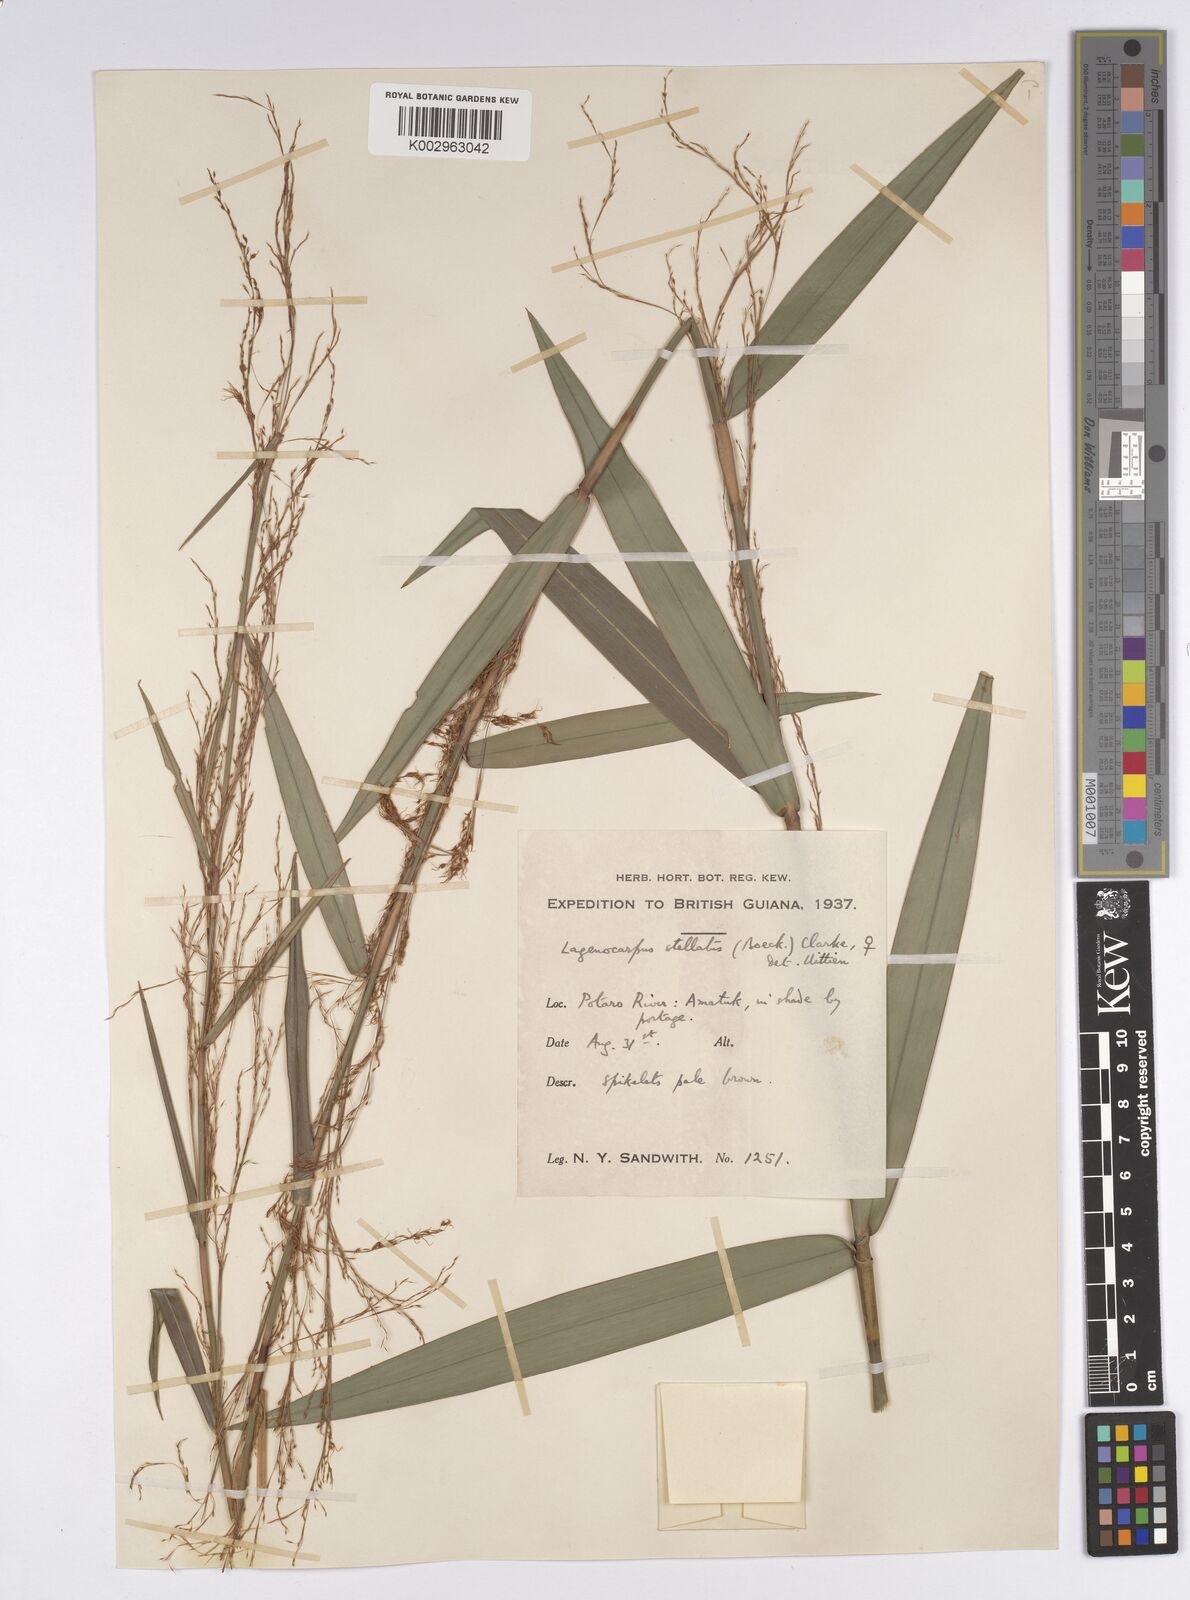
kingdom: Plantae
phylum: Tracheophyta
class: Liliopsida
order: Poales
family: Cyperaceae
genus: Didymiandrum
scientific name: Didymiandrum stellatum
